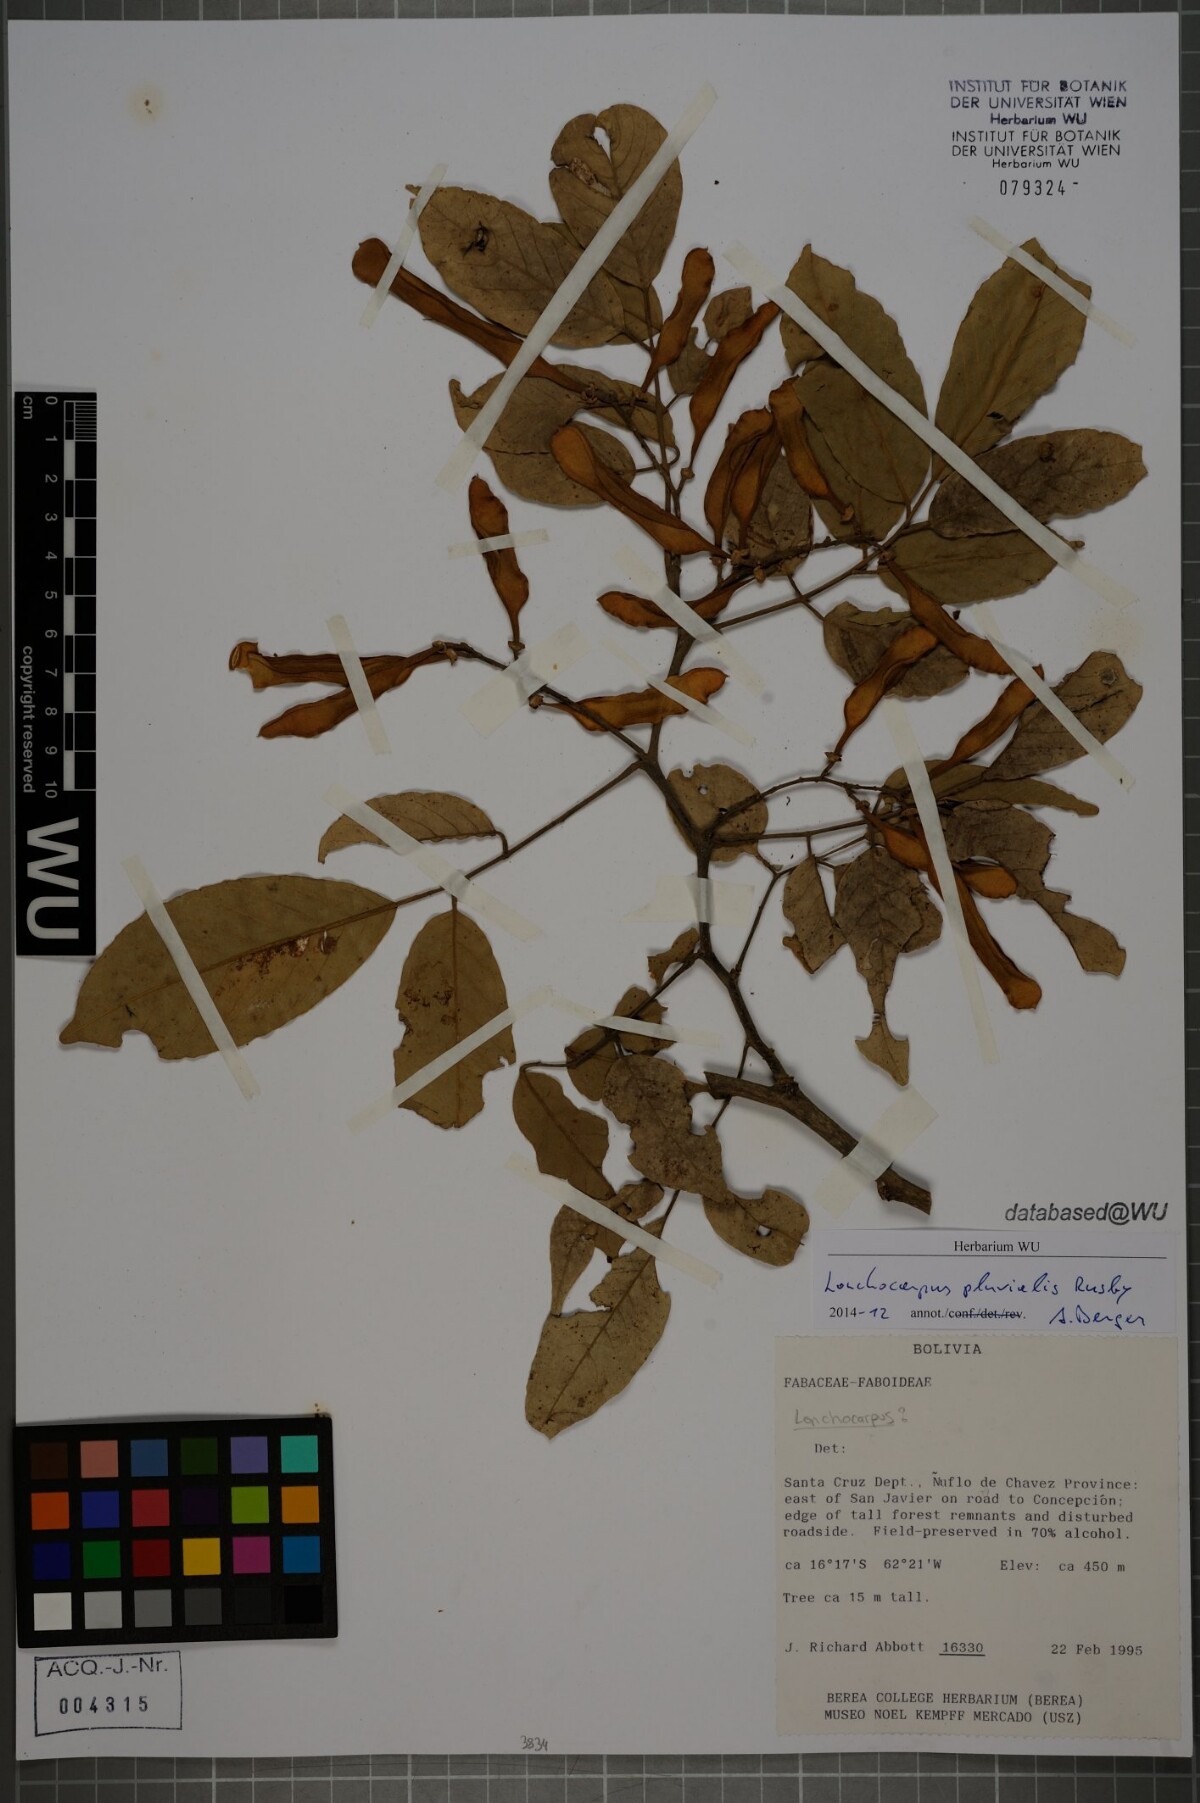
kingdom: Plantae
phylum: Tracheophyta
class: Magnoliopsida
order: Fabales
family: Fabaceae
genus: Lonchocarpus
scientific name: Lonchocarpus pluvialis
